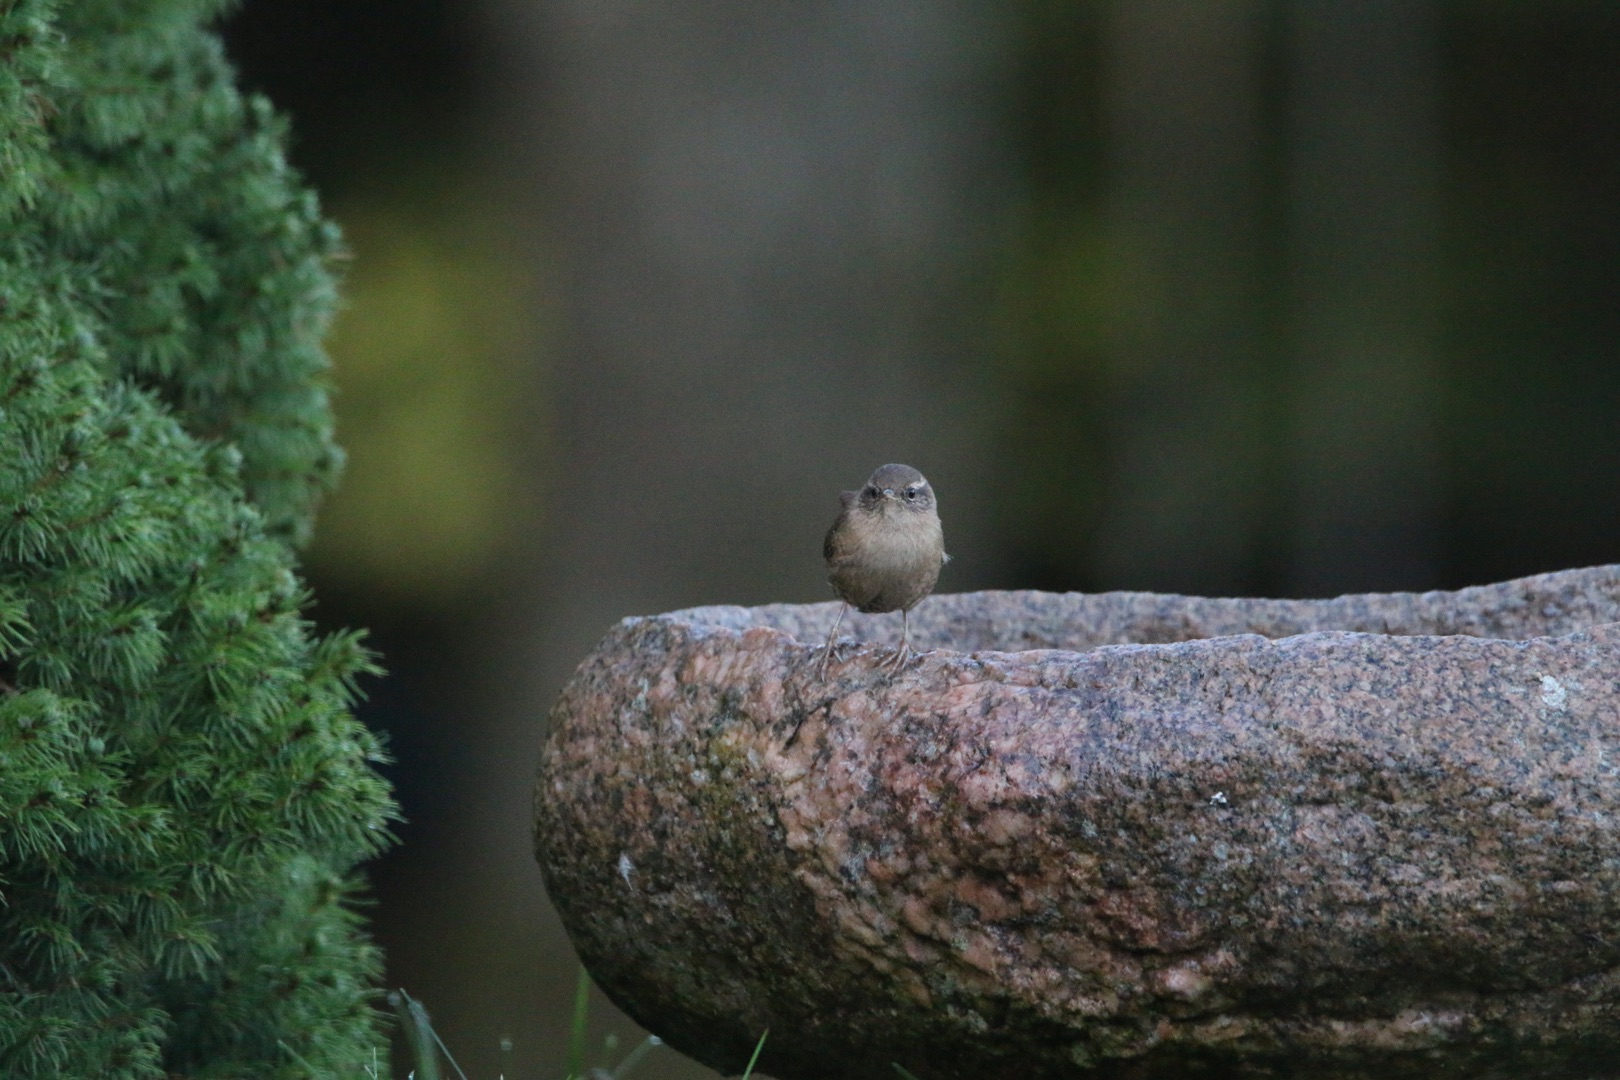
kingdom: Animalia
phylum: Chordata
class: Aves
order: Passeriformes
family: Troglodytidae
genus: Troglodytes
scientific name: Troglodytes troglodytes
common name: Gærdesmutte
